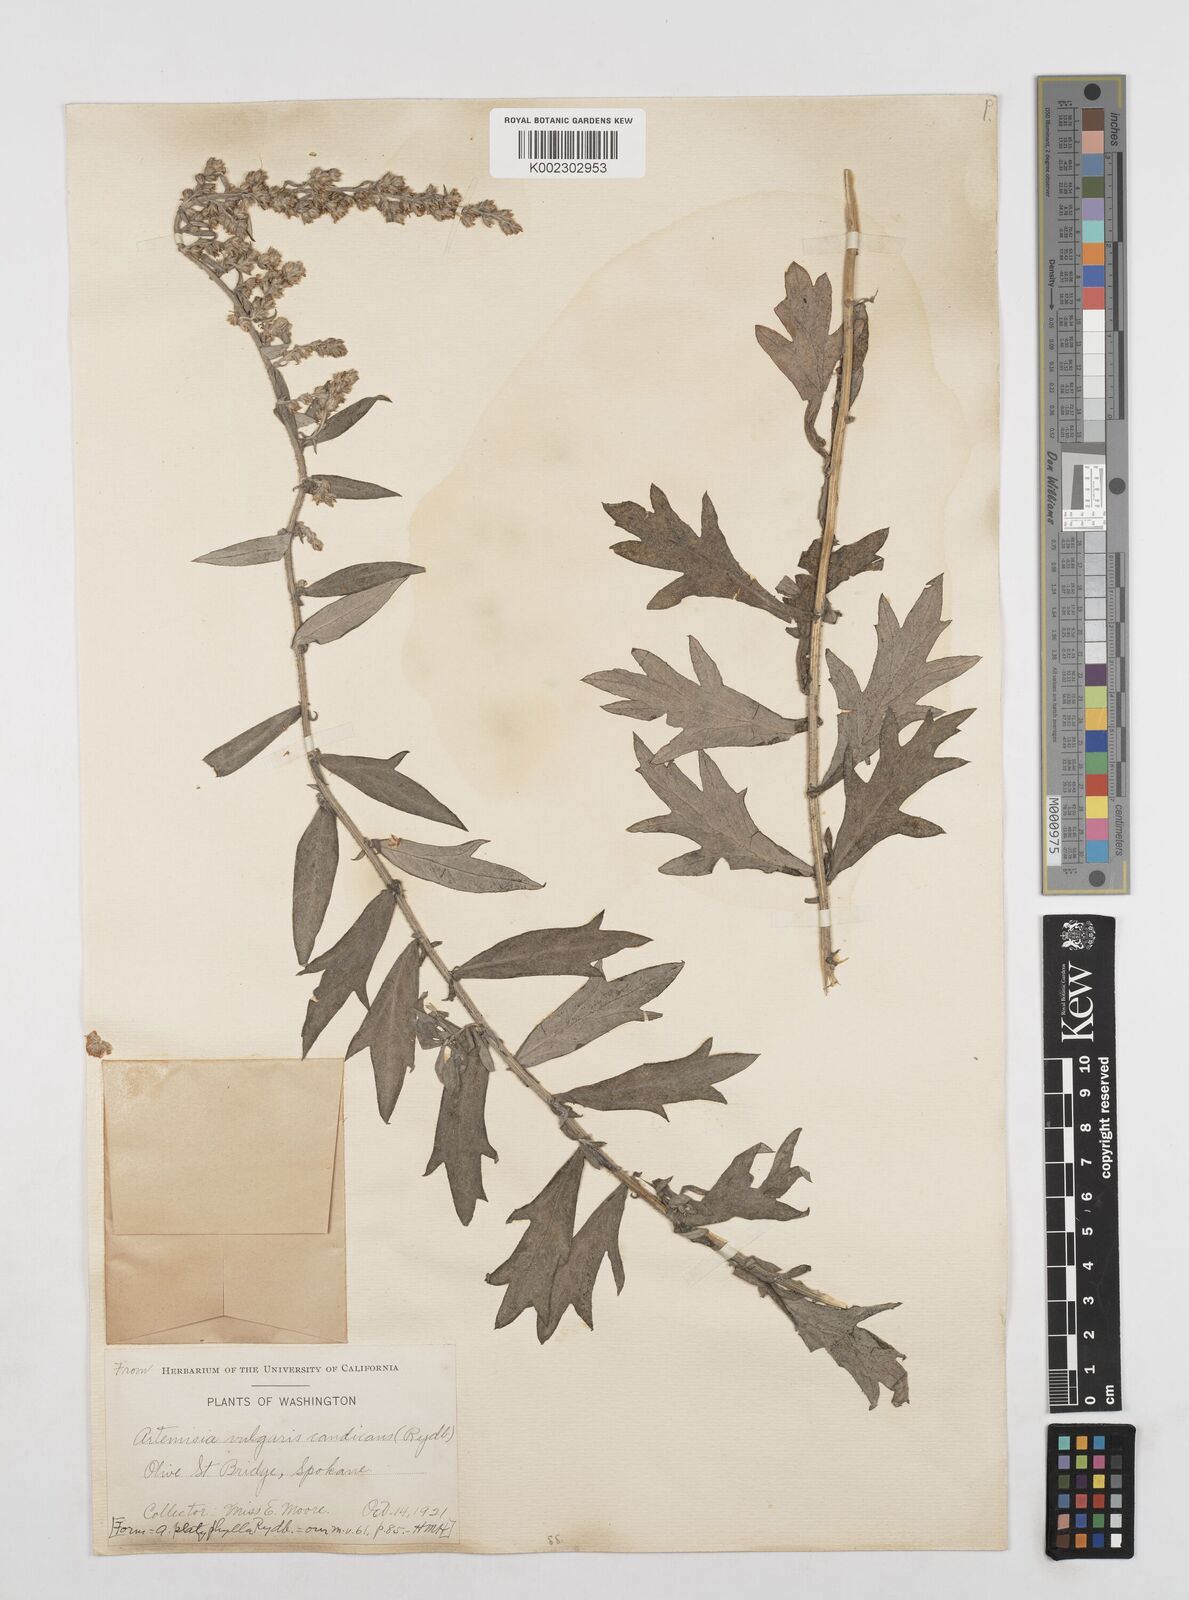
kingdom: Plantae
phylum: Tracheophyta
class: Magnoliopsida
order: Asterales
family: Asteraceae
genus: Artemisia
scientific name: Artemisia ludoviciana
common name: Western mugwort
